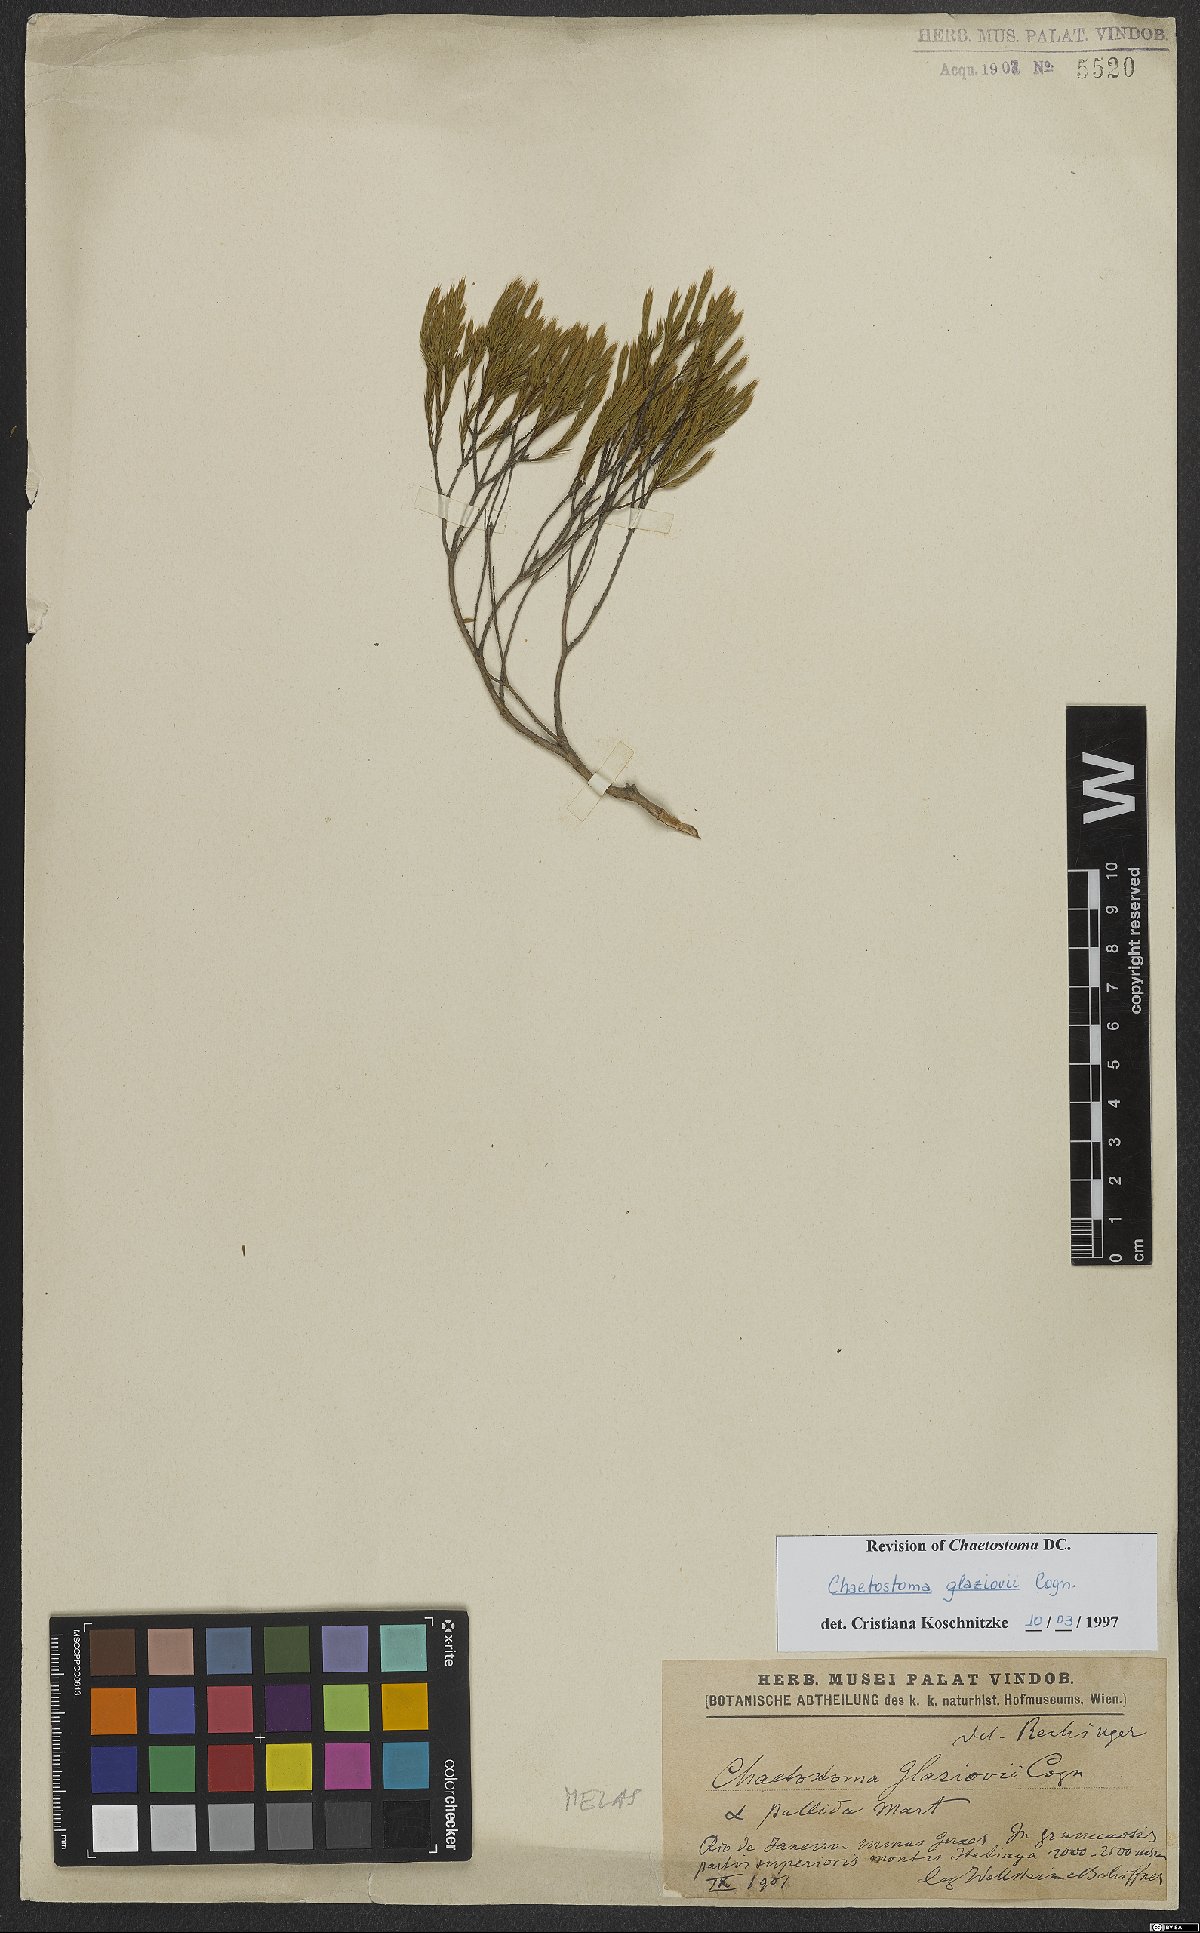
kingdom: Plantae
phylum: Tracheophyta
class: Magnoliopsida
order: Myrtales
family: Melastomataceae
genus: Microlicia
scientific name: Microlicia glaziovii
